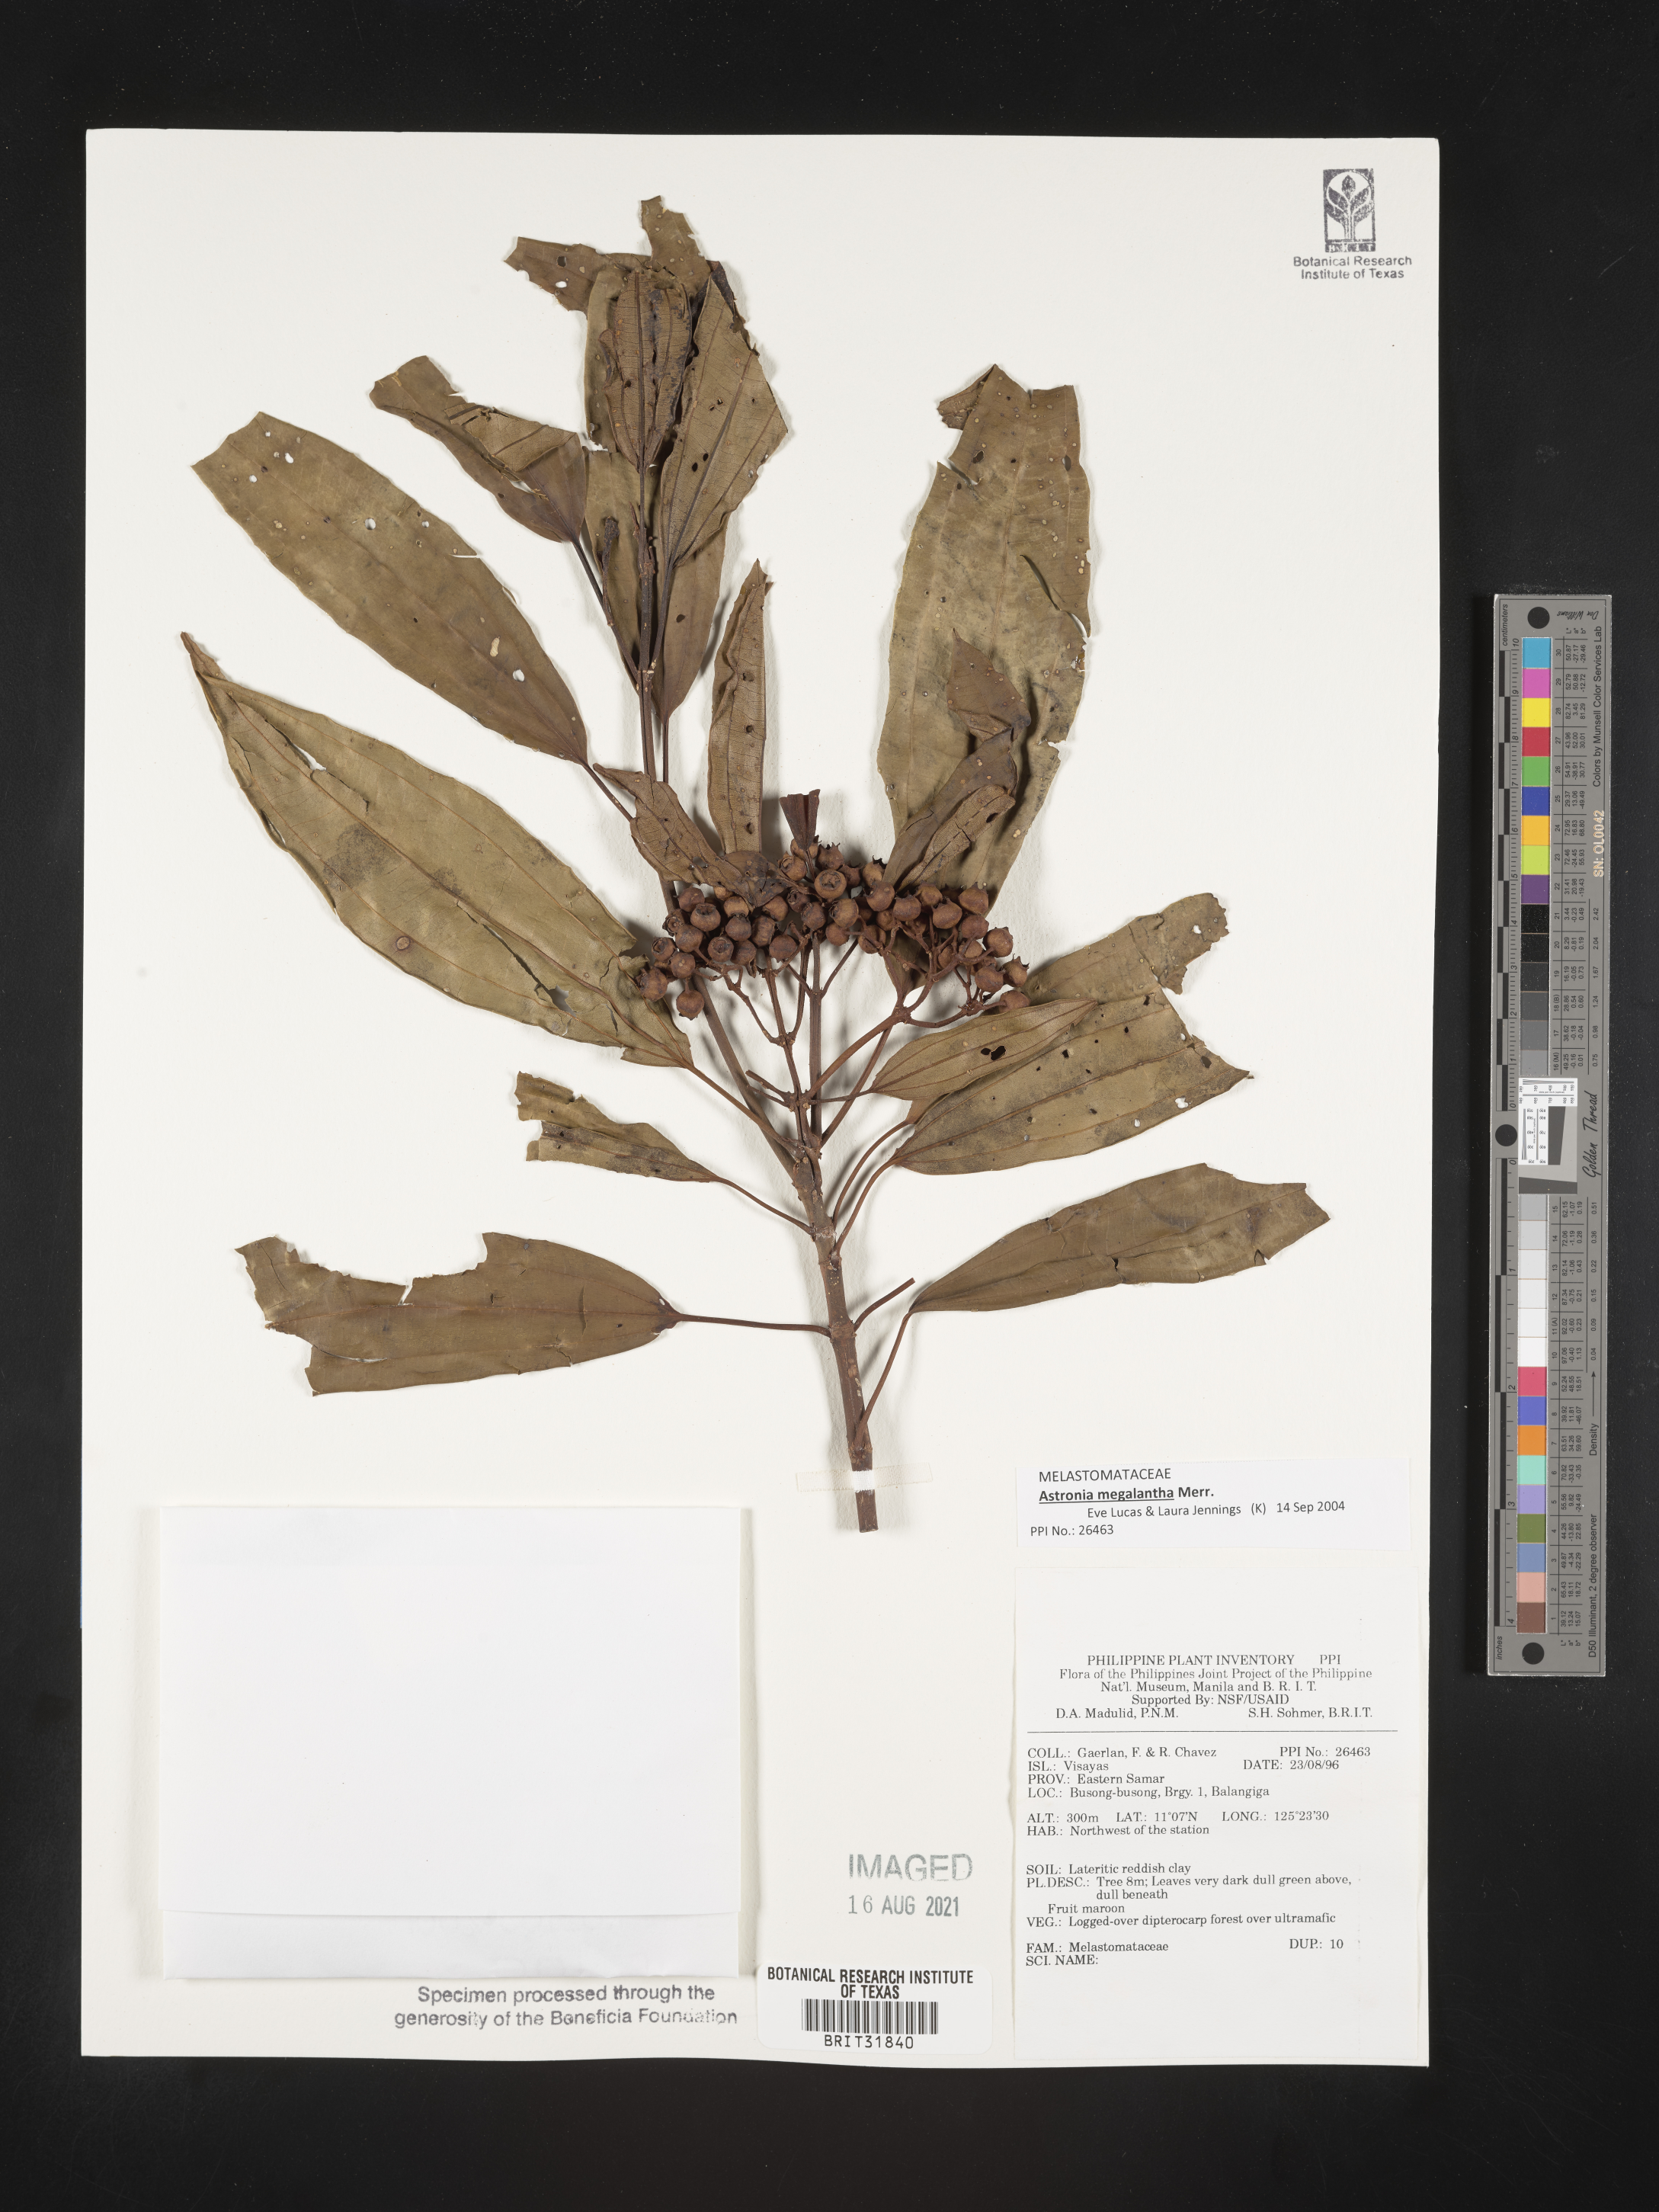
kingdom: Plantae
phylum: Tracheophyta
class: Magnoliopsida
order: Myrtales
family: Melastomataceae
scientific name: Melastomataceae
